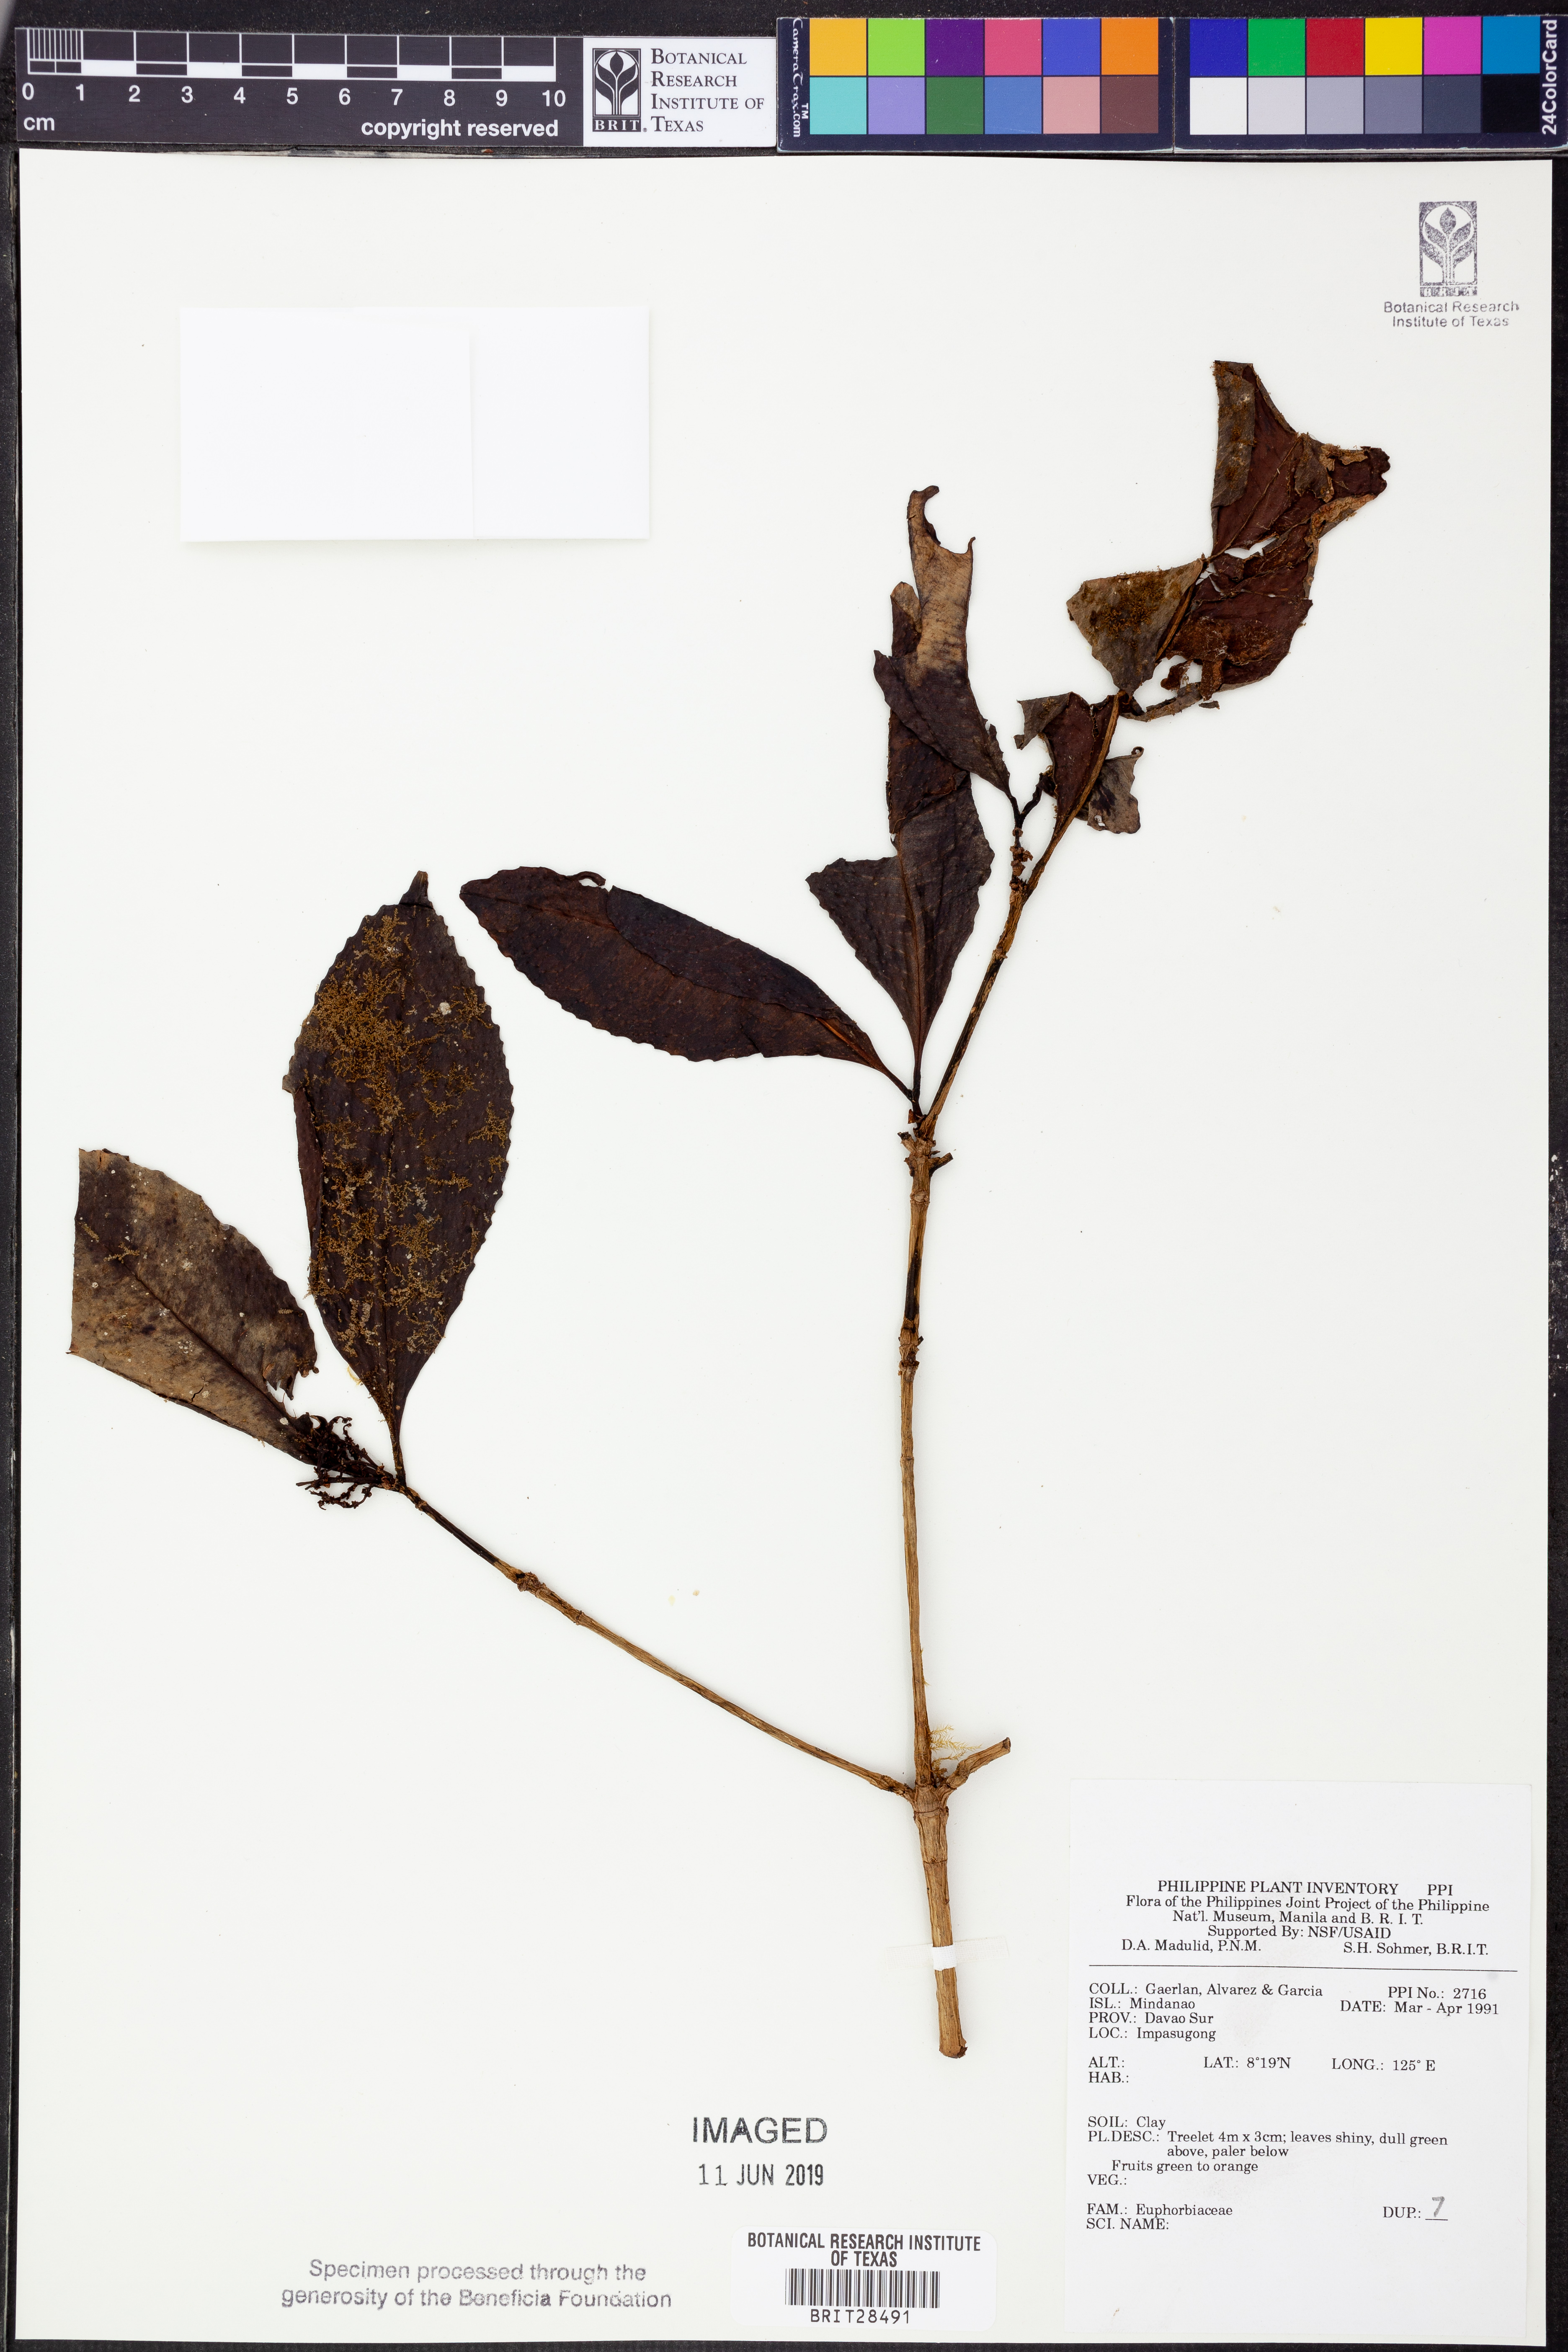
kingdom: Plantae
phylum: Tracheophyta
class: Magnoliopsida
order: Malpighiales
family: Euphorbiaceae
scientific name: Euphorbiaceae
